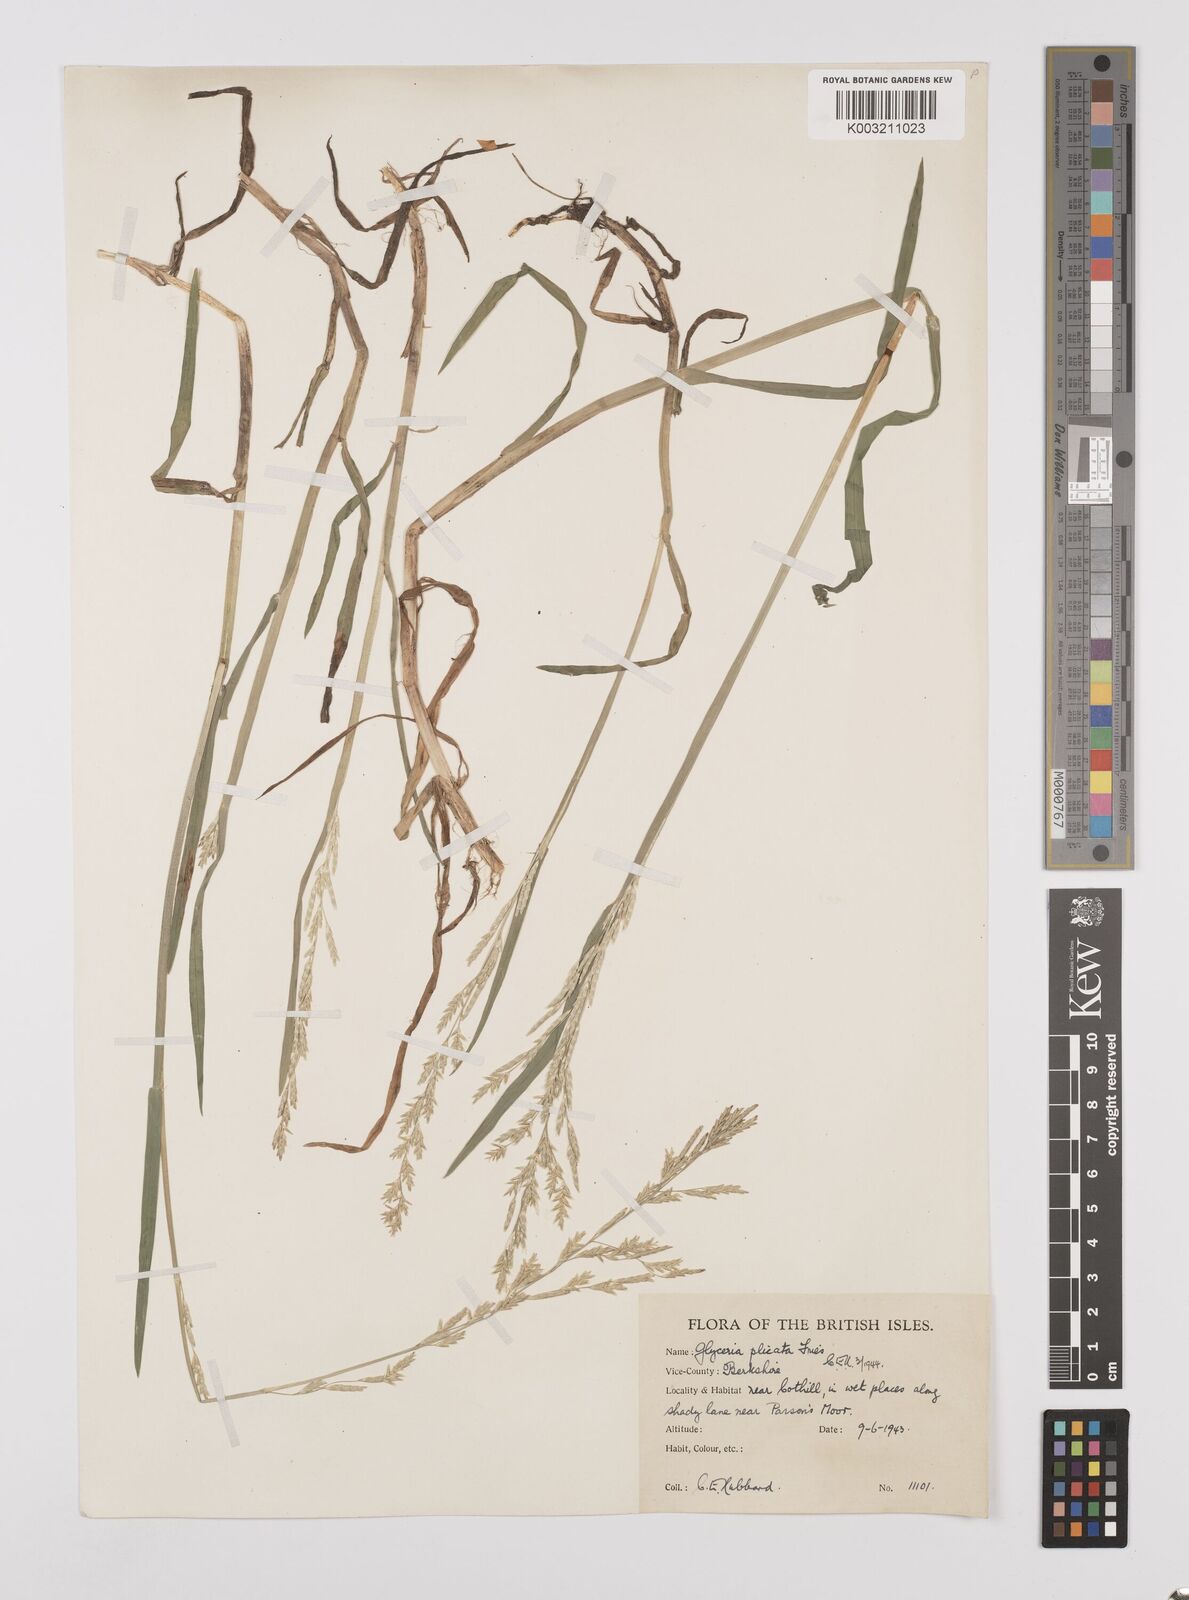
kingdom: Plantae
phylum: Tracheophyta
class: Liliopsida
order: Poales
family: Poaceae
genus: Glyceria
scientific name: Glyceria notata
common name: Plicate sweet-grass
